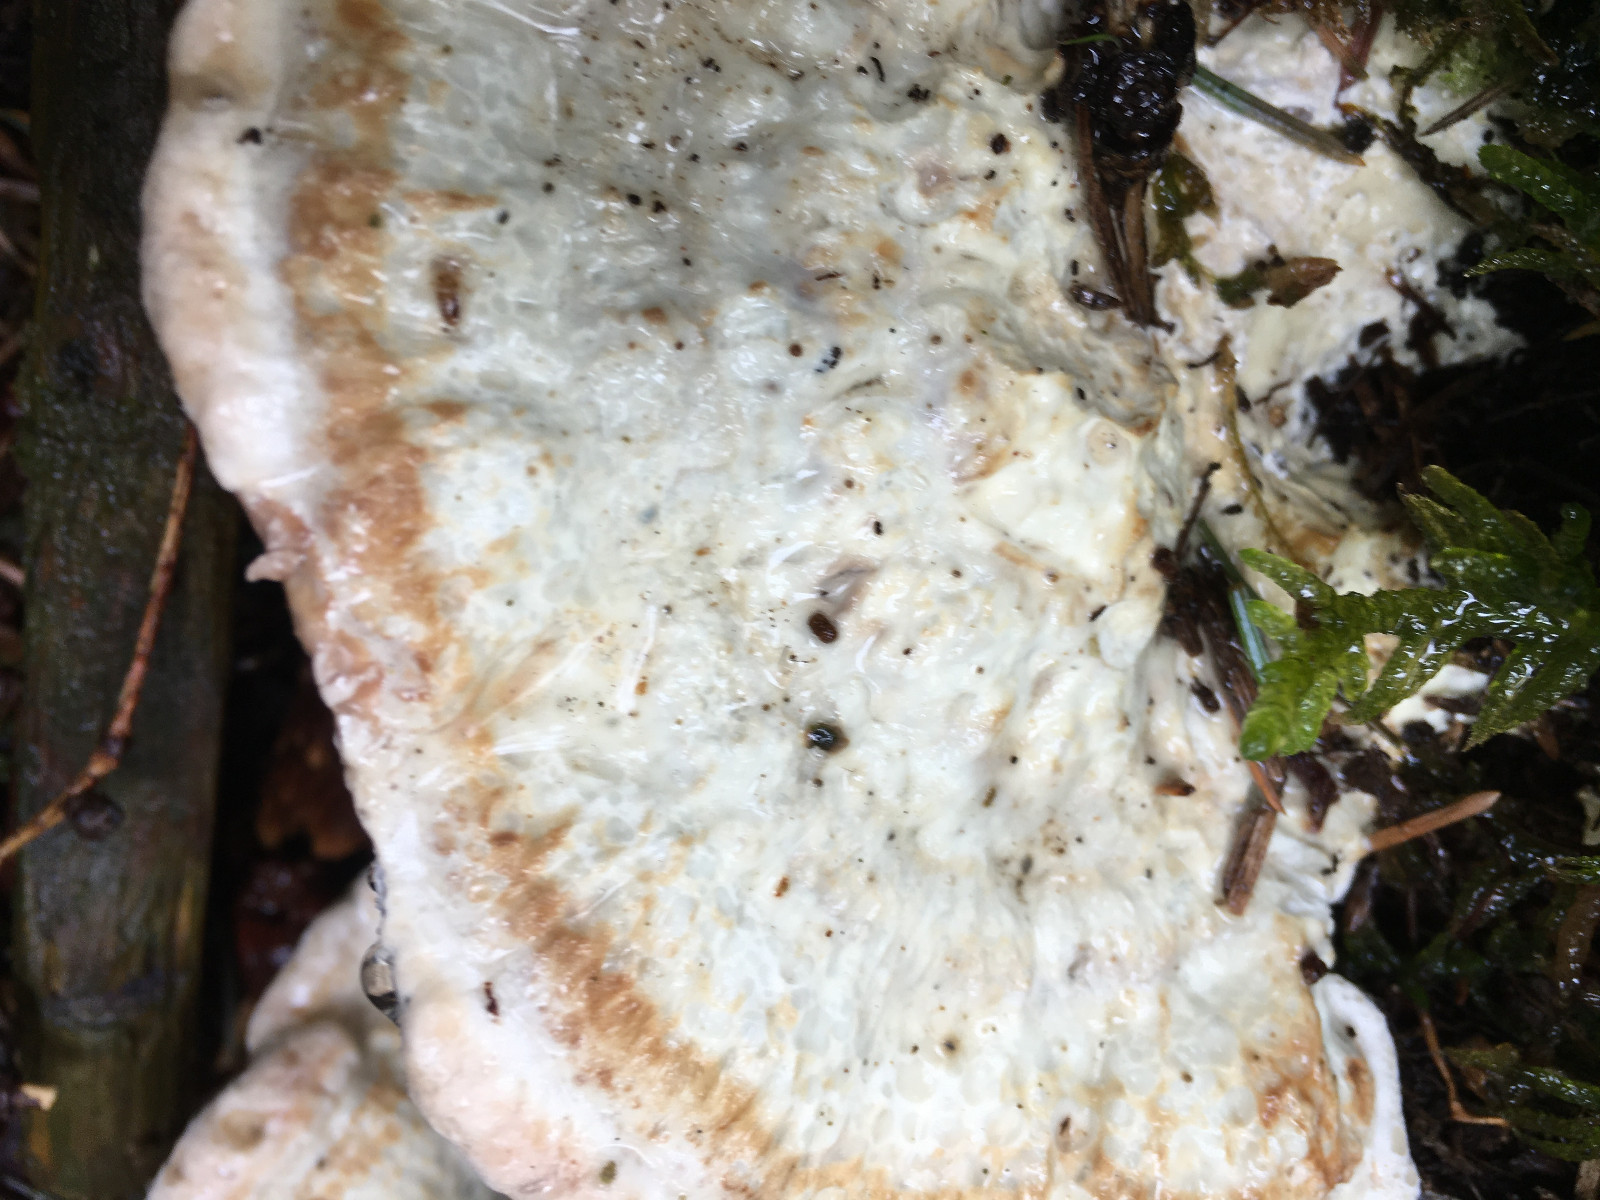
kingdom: Fungi
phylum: Basidiomycota
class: Agaricomycetes
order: Polyporales
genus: Calcipostia
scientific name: Calcipostia guttulata
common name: dråbe-kødporesvamp
